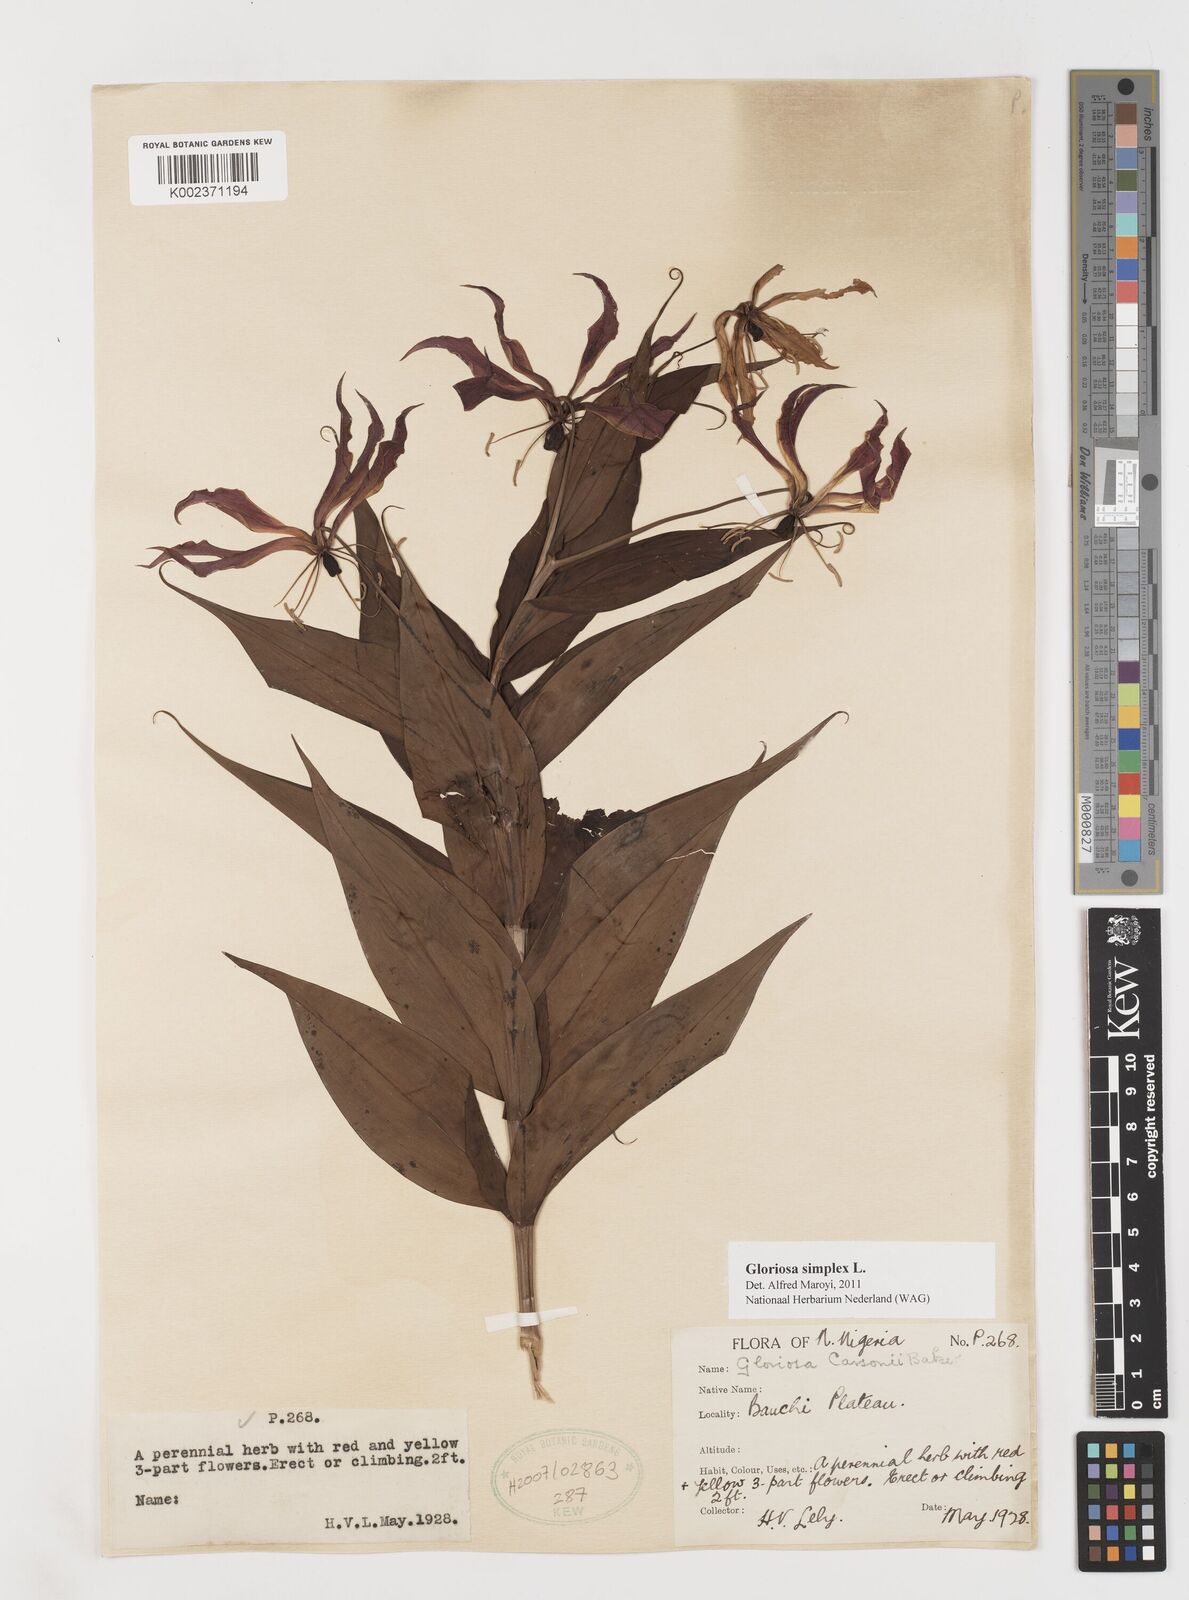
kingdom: Plantae
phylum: Tracheophyta
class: Liliopsida
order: Liliales
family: Colchicaceae
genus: Gloriosa
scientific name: Gloriosa simplex
